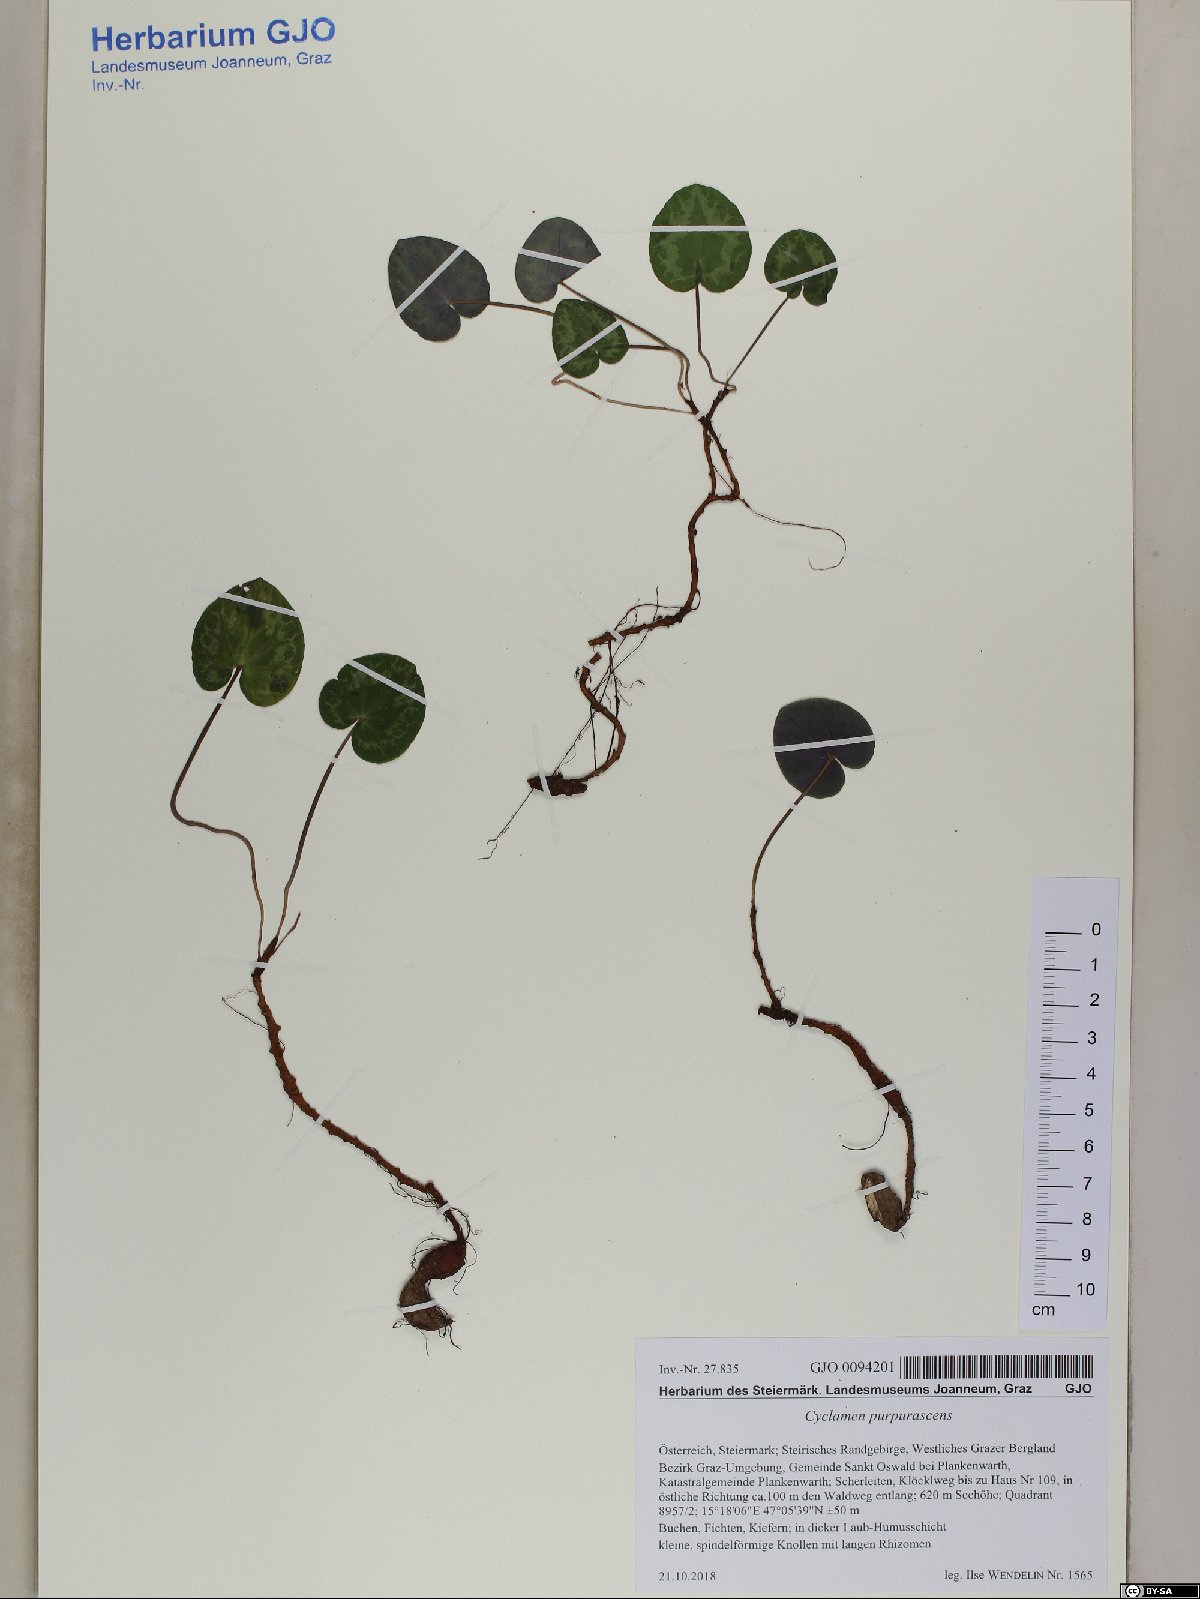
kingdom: Plantae
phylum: Tracheophyta
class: Magnoliopsida
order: Ericales
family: Primulaceae
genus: Cyclamen
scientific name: Cyclamen purpurascens
